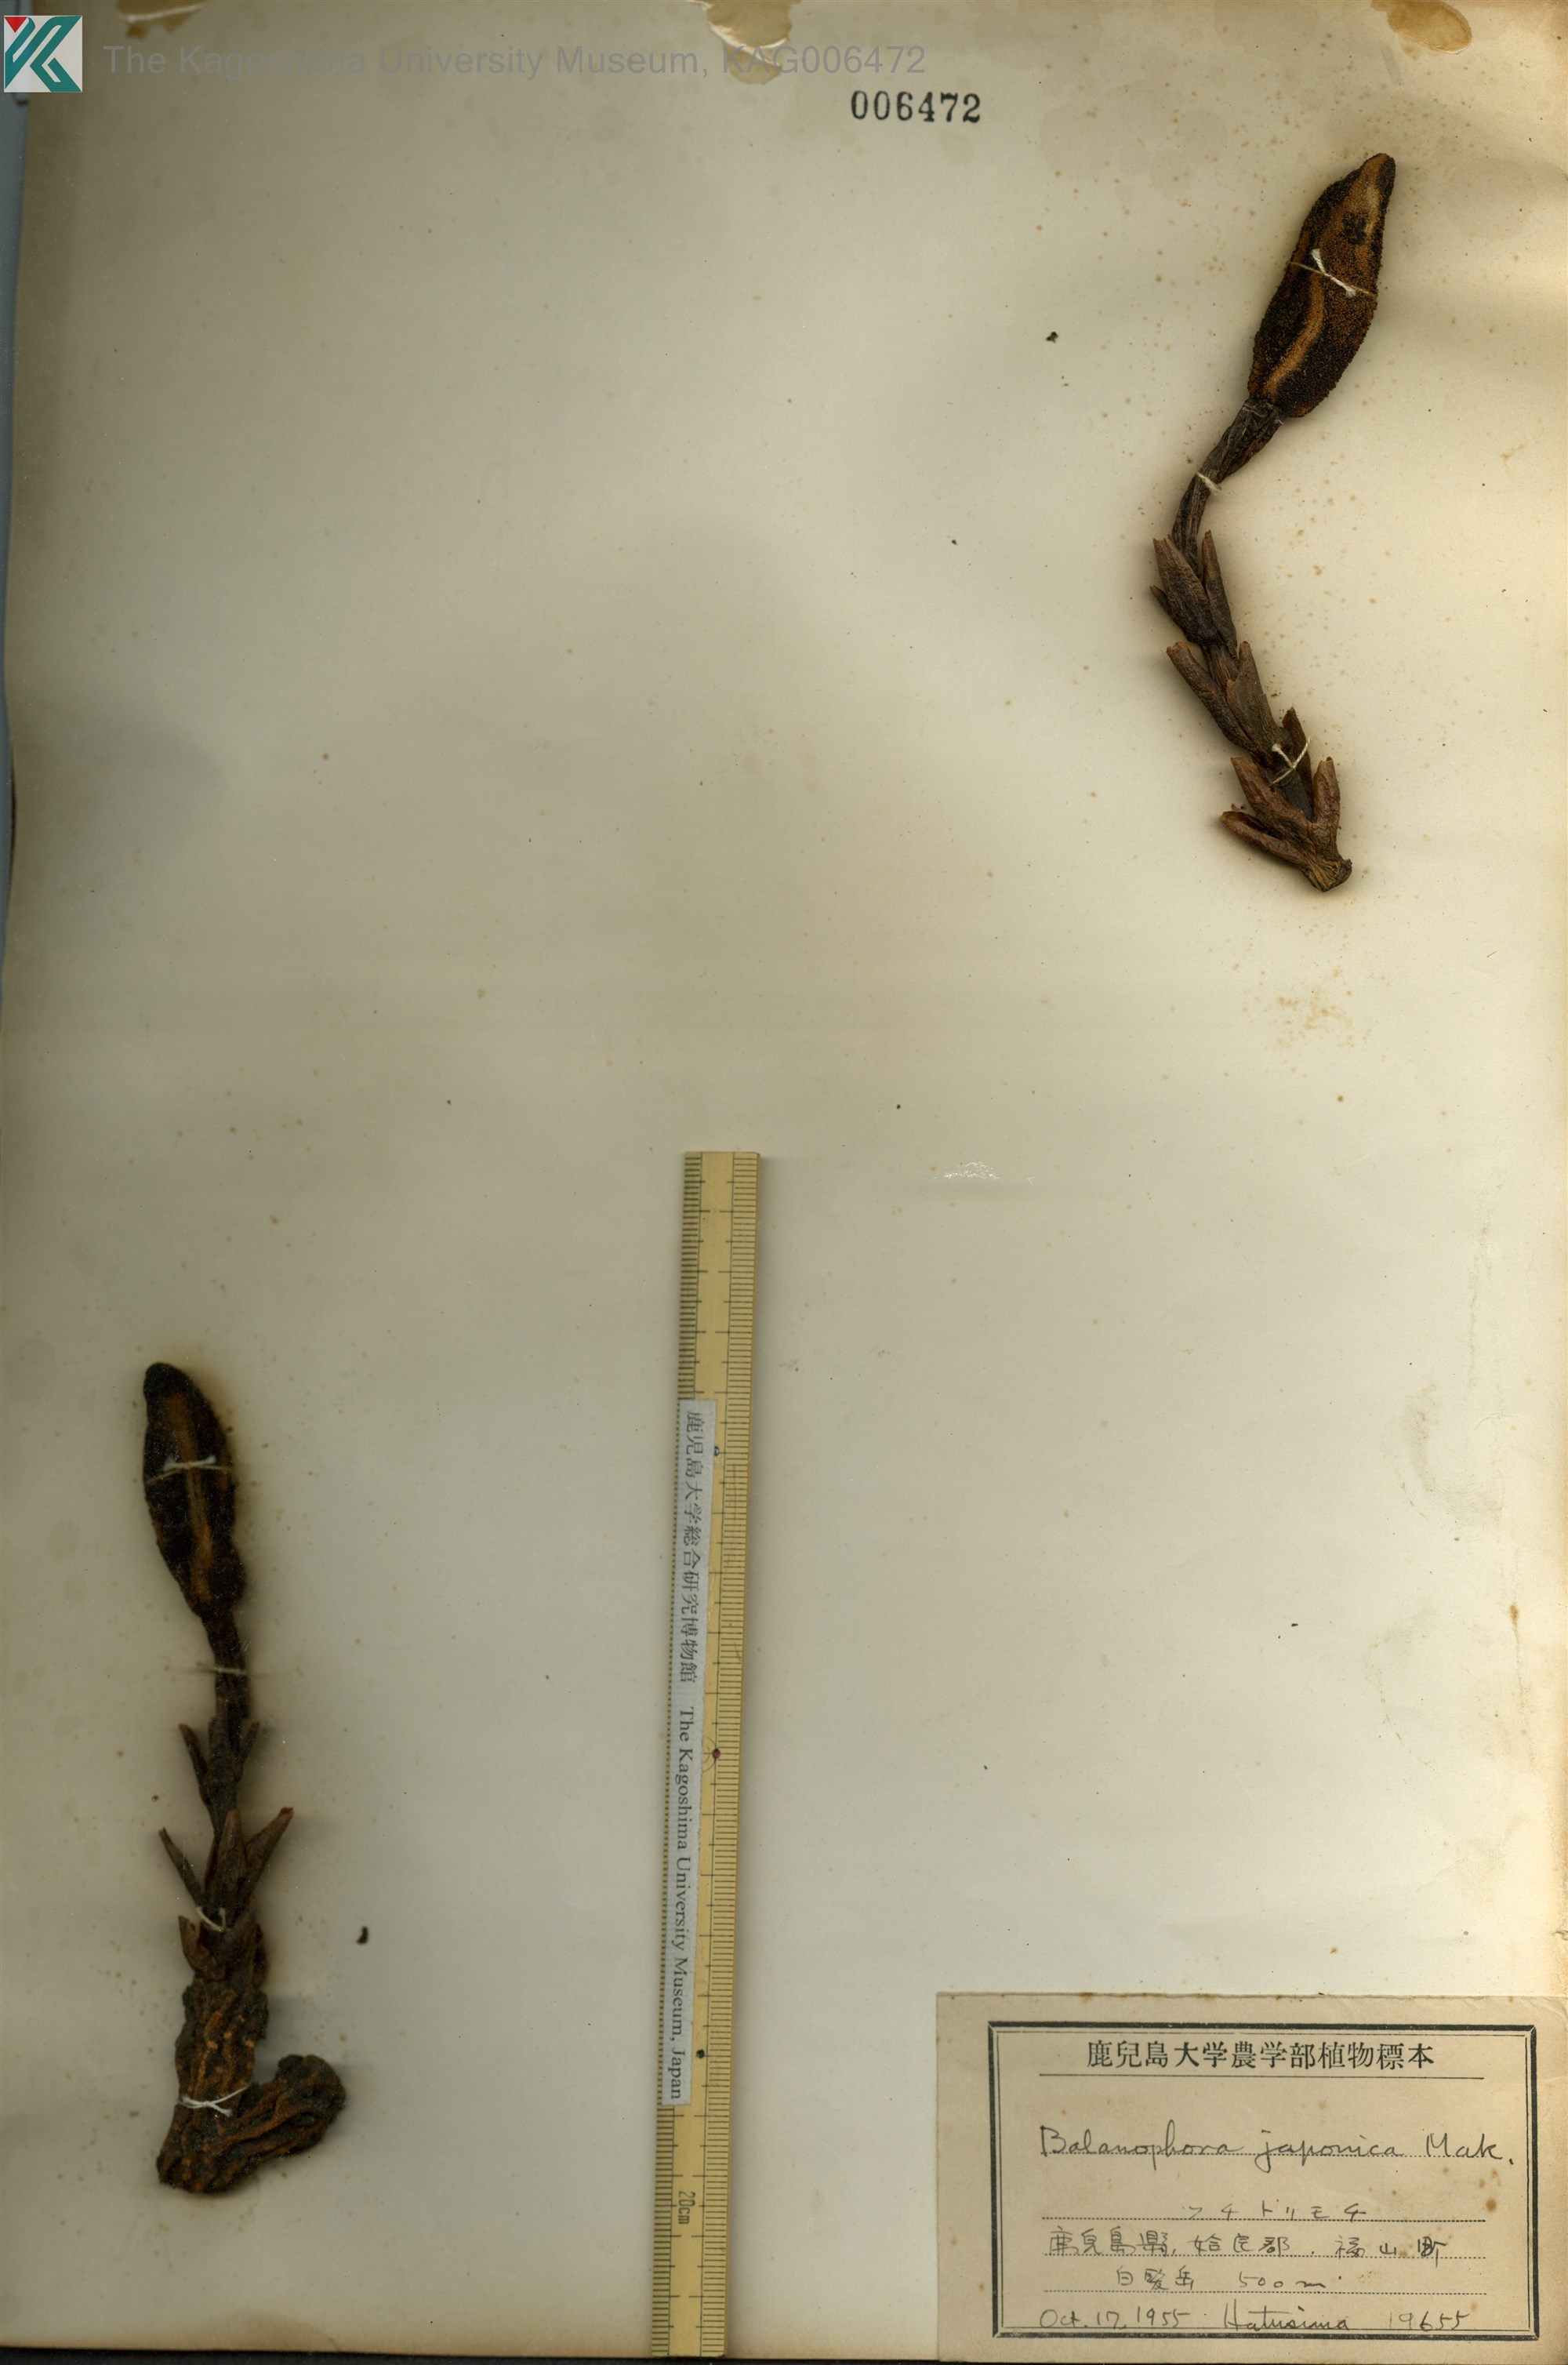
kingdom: Plantae
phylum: Tracheophyta
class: Magnoliopsida
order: Santalales
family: Balanophoraceae
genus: Balanophora
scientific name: Balanophora tobiracola
